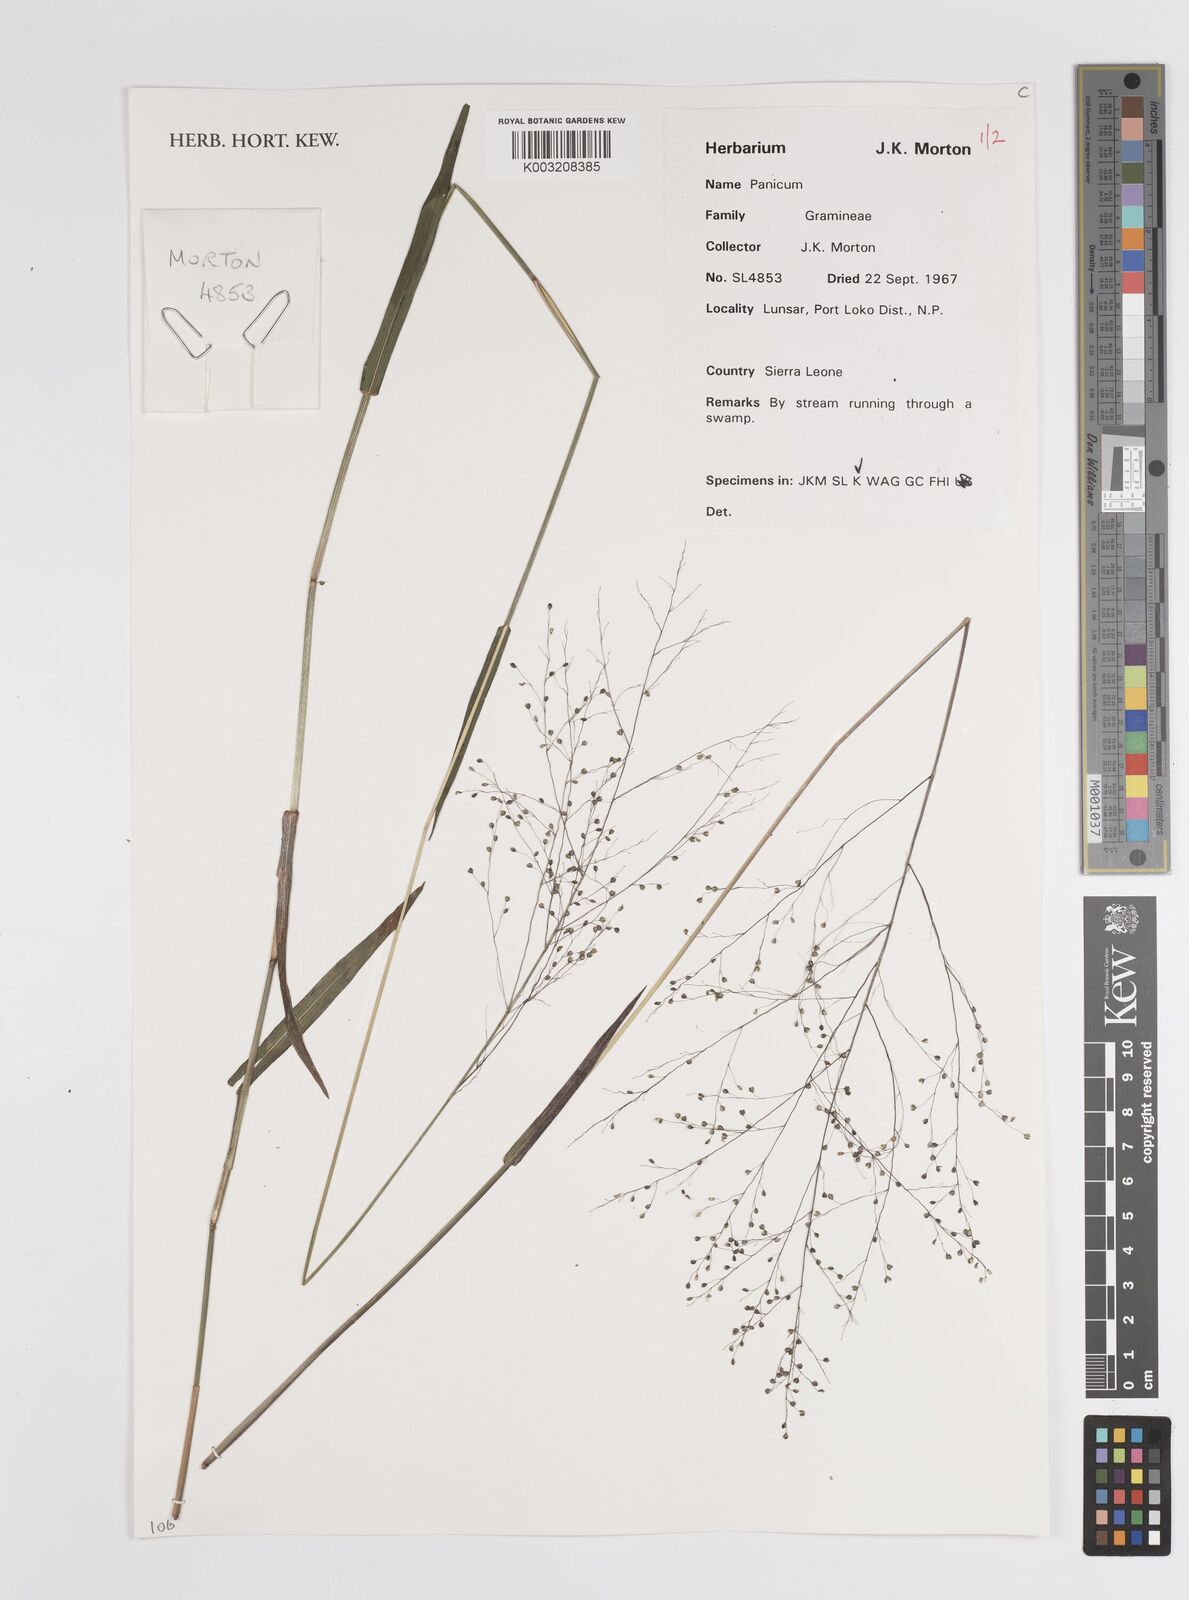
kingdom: Plantae
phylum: Tracheophyta
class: Liliopsida
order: Poales
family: Poaceae
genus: Panicum
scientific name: Panicum
